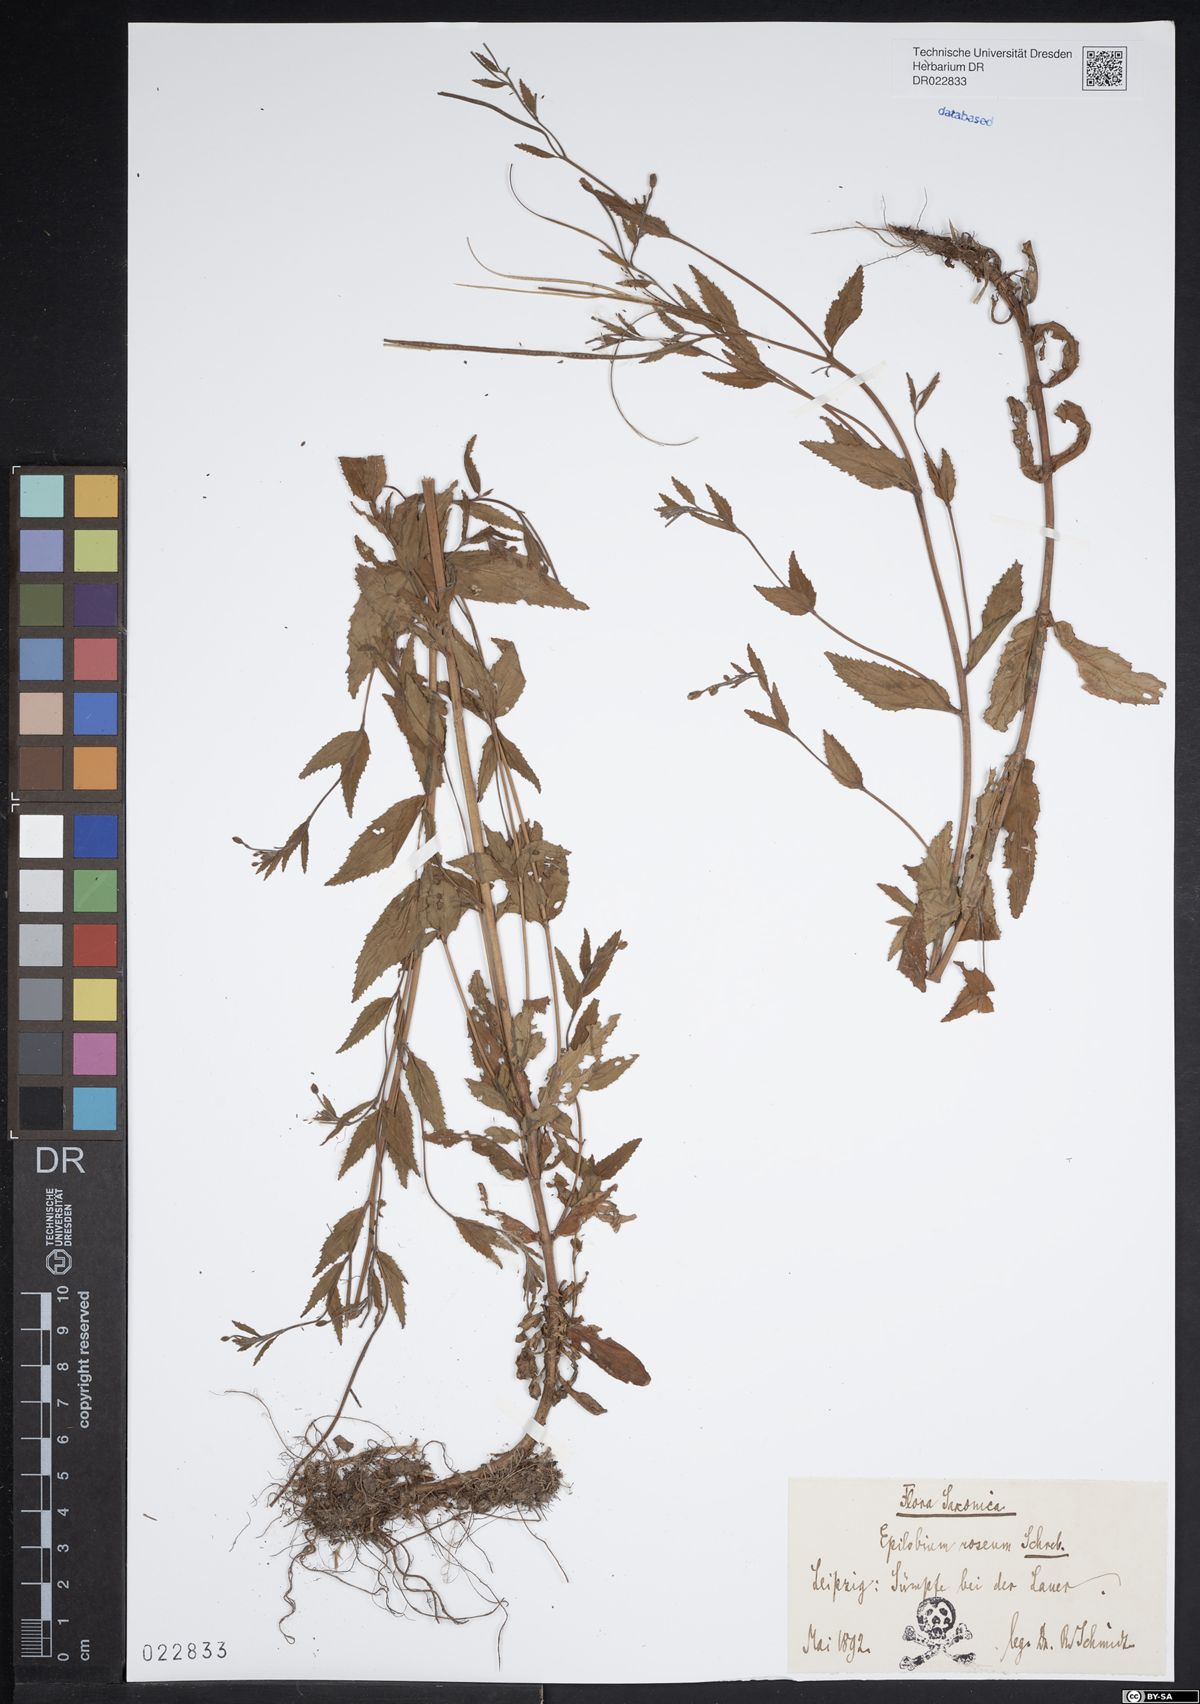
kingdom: Plantae
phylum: Tracheophyta
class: Magnoliopsida
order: Myrtales
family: Onagraceae
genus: Epilobium
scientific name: Epilobium roseum
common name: Pale willowherb
